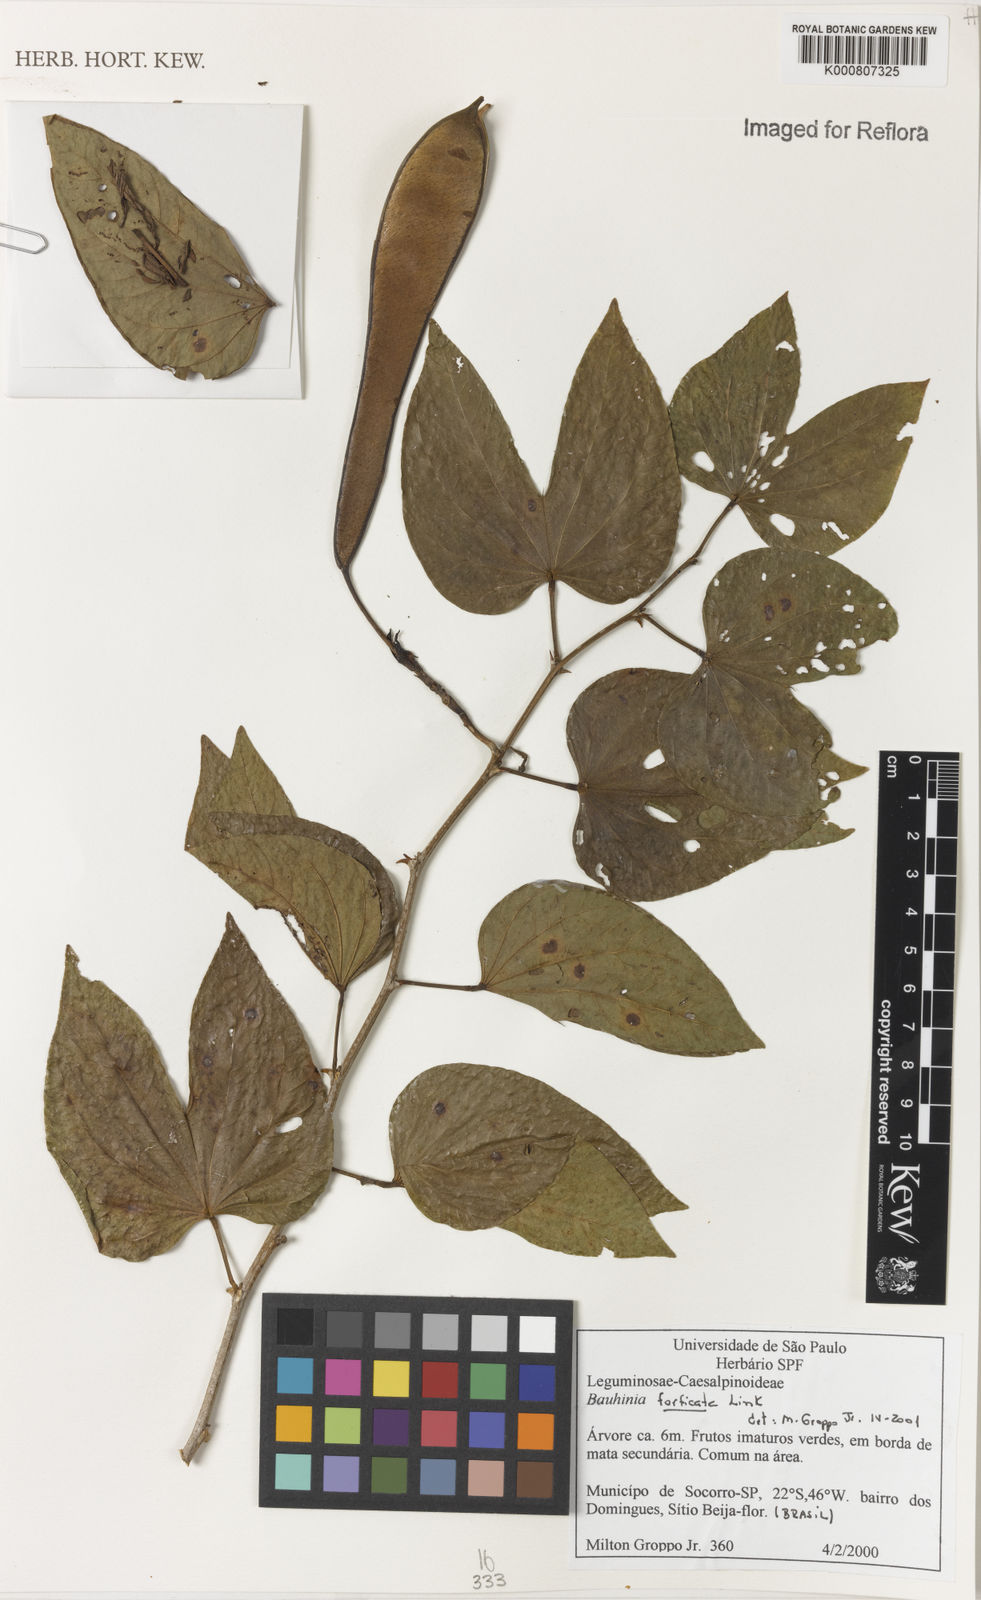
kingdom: Plantae
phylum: Tracheophyta
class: Magnoliopsida
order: Fabales
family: Fabaceae
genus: Bauhinia
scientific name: Bauhinia forficata
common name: Orchid tree
